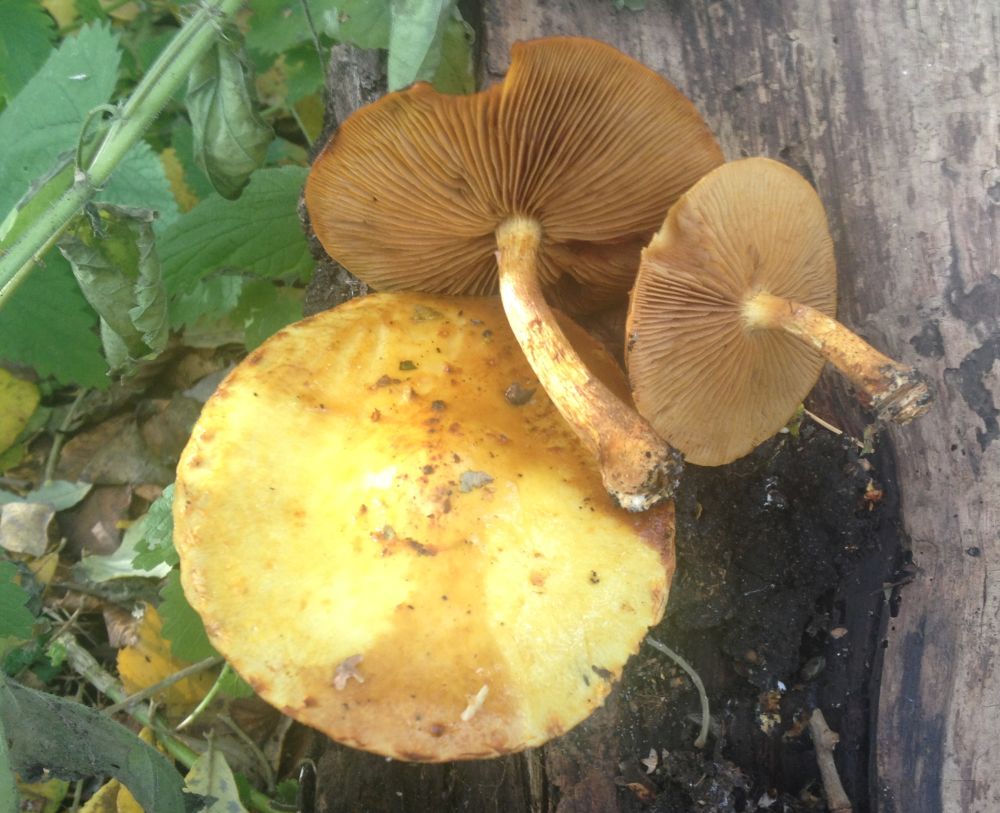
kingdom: Fungi
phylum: Basidiomycota
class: Agaricomycetes
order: Agaricales
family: Strophariaceae
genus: Pholiota
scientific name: Pholiota
